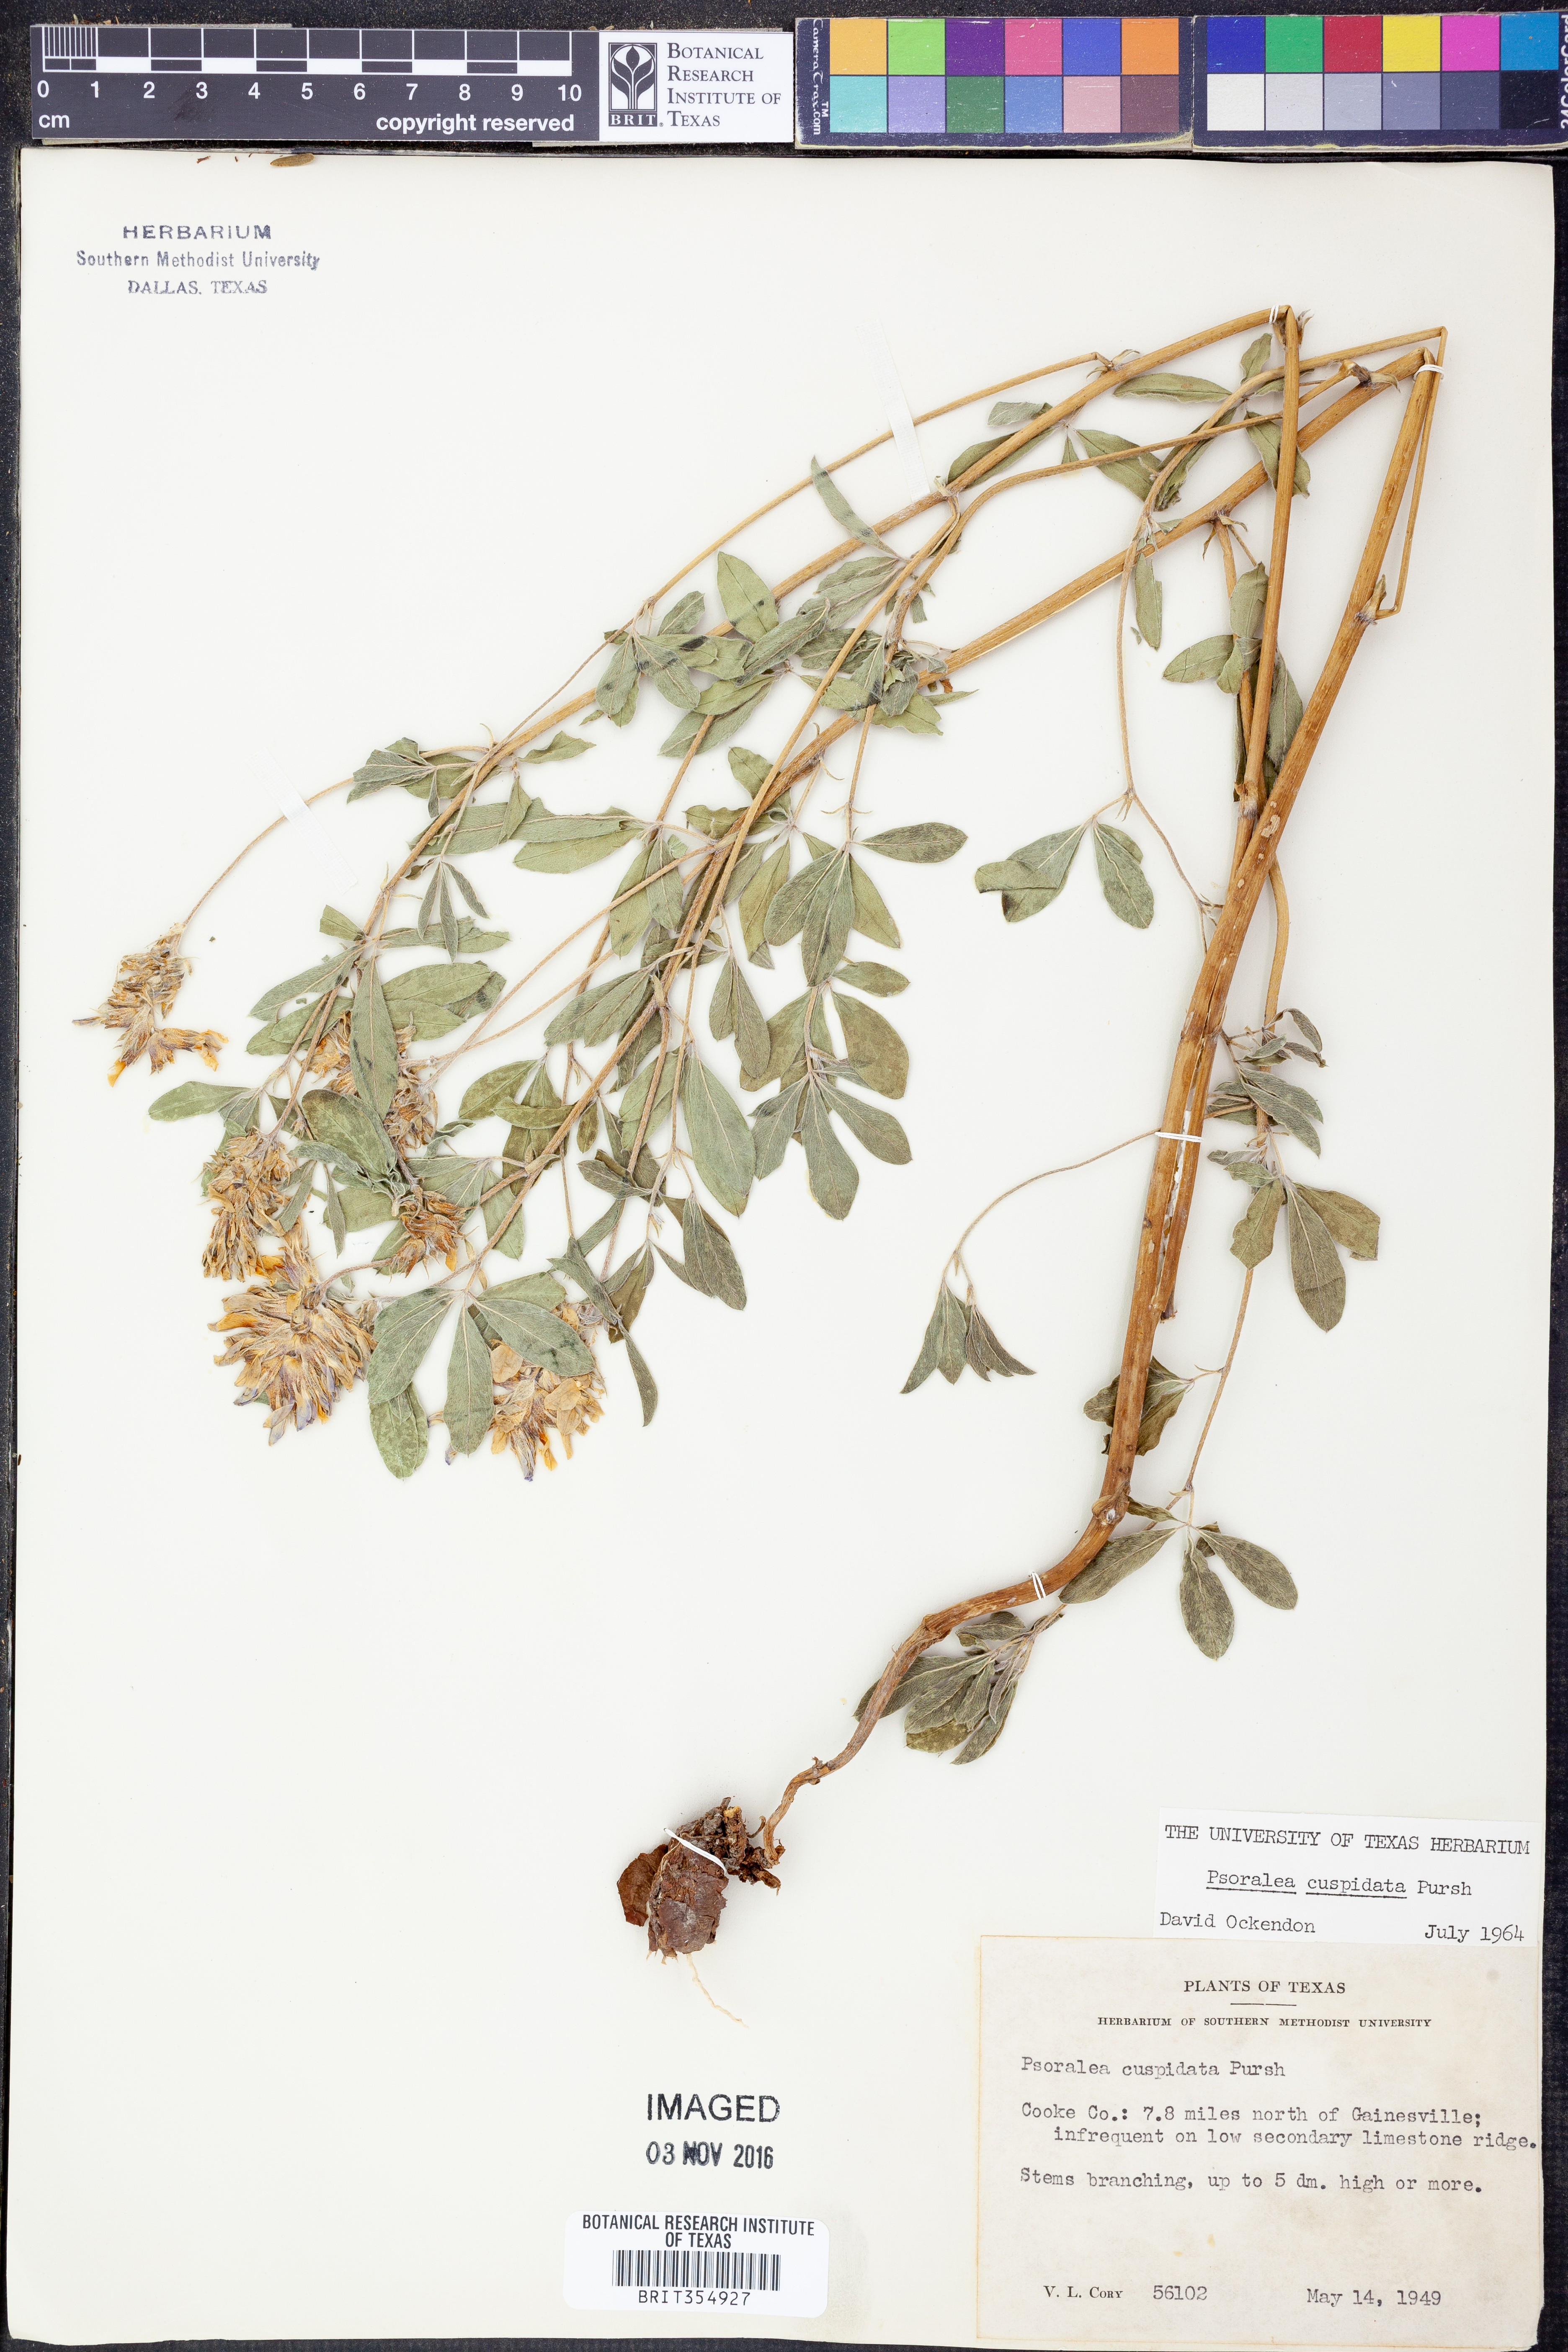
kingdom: Plantae
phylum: Tracheophyta
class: Magnoliopsida
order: Fabales
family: Fabaceae
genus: Pediomelum
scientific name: Pediomelum cuspidatum
